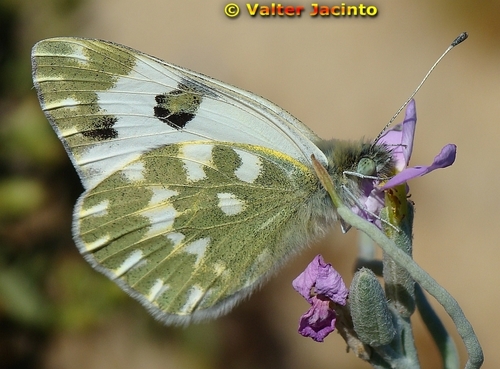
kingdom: Animalia
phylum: Arthropoda
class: Insecta
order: Lepidoptera
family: Pieridae
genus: Pontia
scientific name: Pontia daplidice
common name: Bath white
